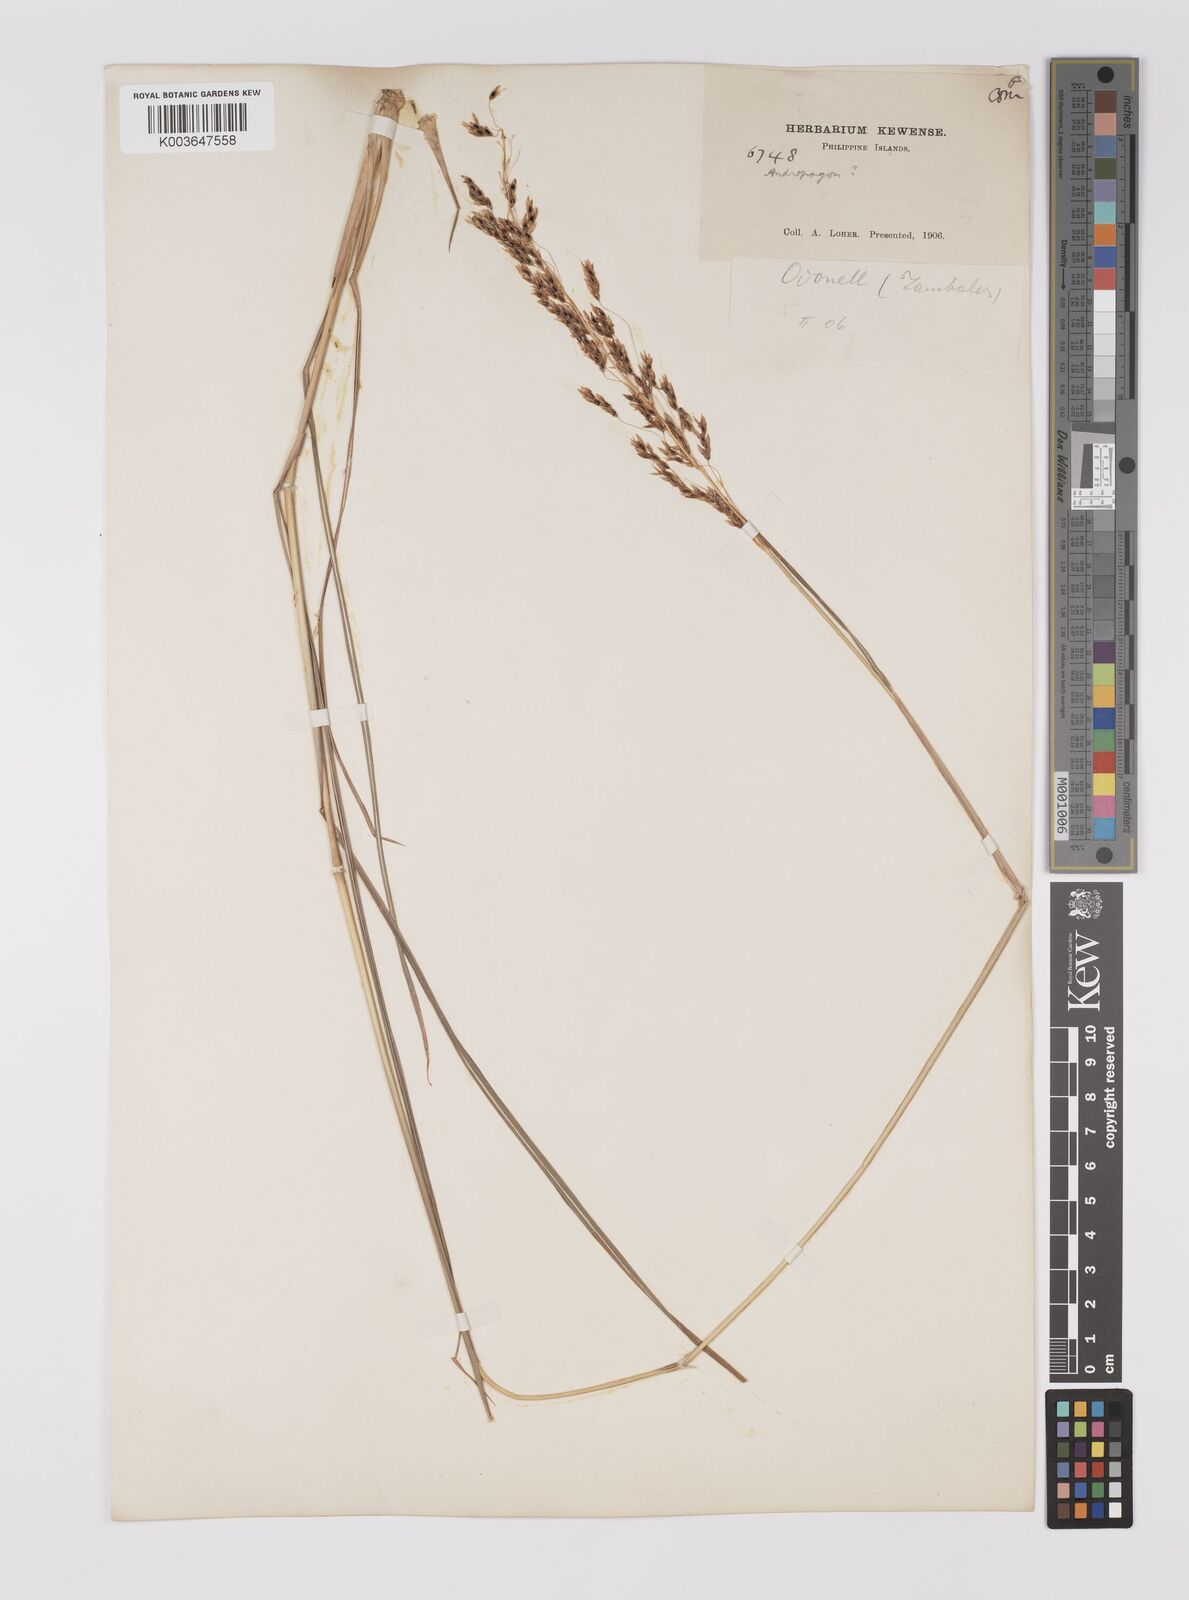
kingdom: Plantae
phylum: Tracheophyta
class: Liliopsida
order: Poales
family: Poaceae
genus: Sorghum
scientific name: Sorghum nitidum
